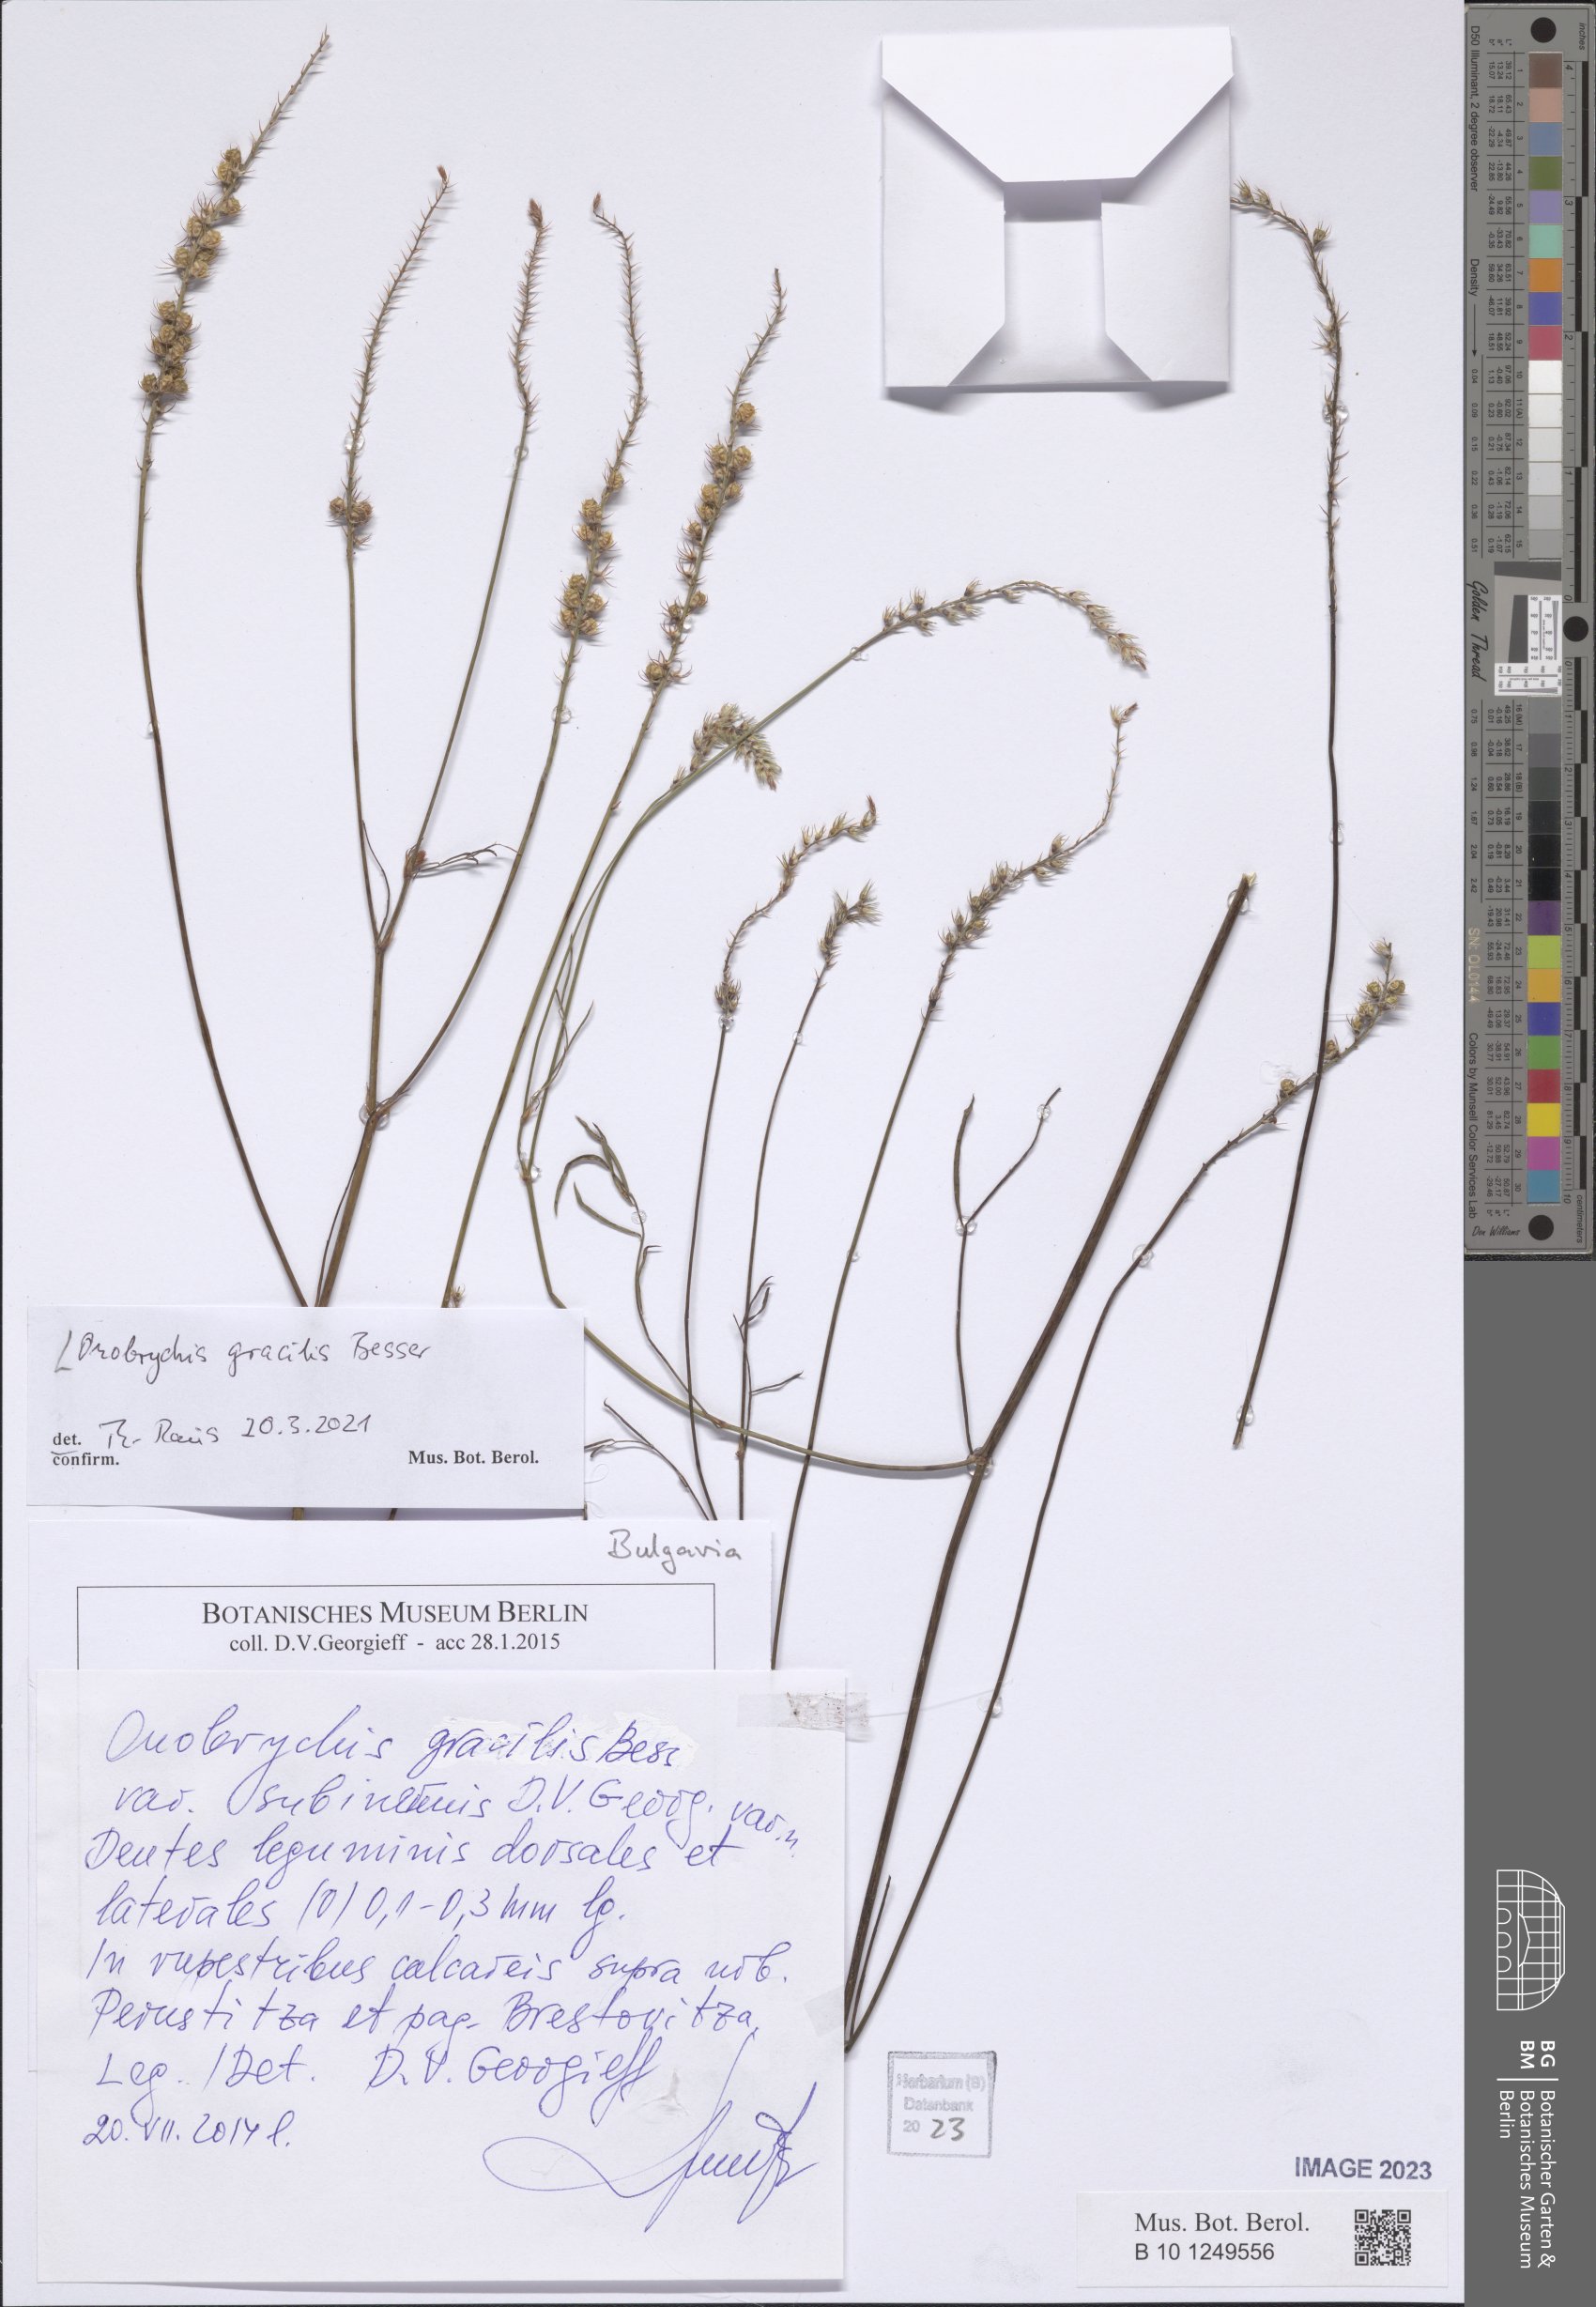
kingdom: Plantae
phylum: Tracheophyta
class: Magnoliopsida
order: Fabales
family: Fabaceae
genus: Onobrychis
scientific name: Onobrychis gracilis
